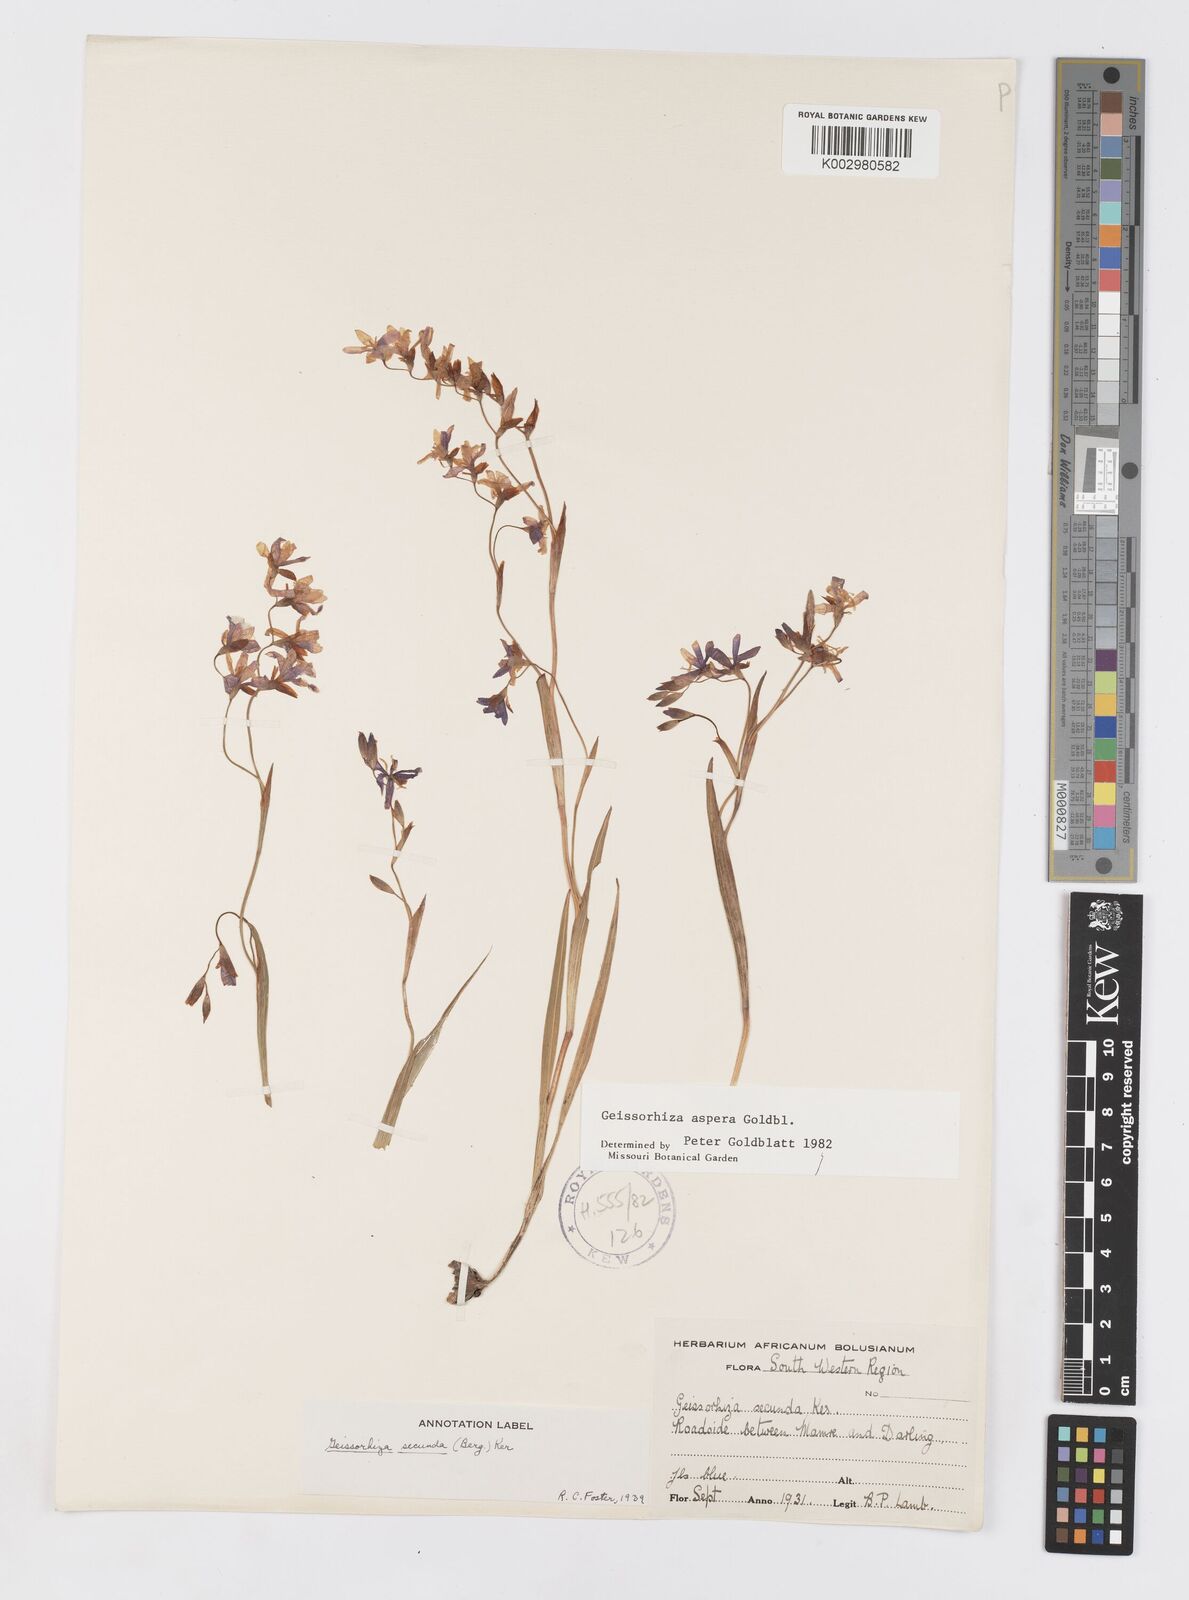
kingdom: Plantae
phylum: Tracheophyta
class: Liliopsida
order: Asparagales
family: Iridaceae
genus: Geissorhiza
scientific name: Geissorhiza aspera
